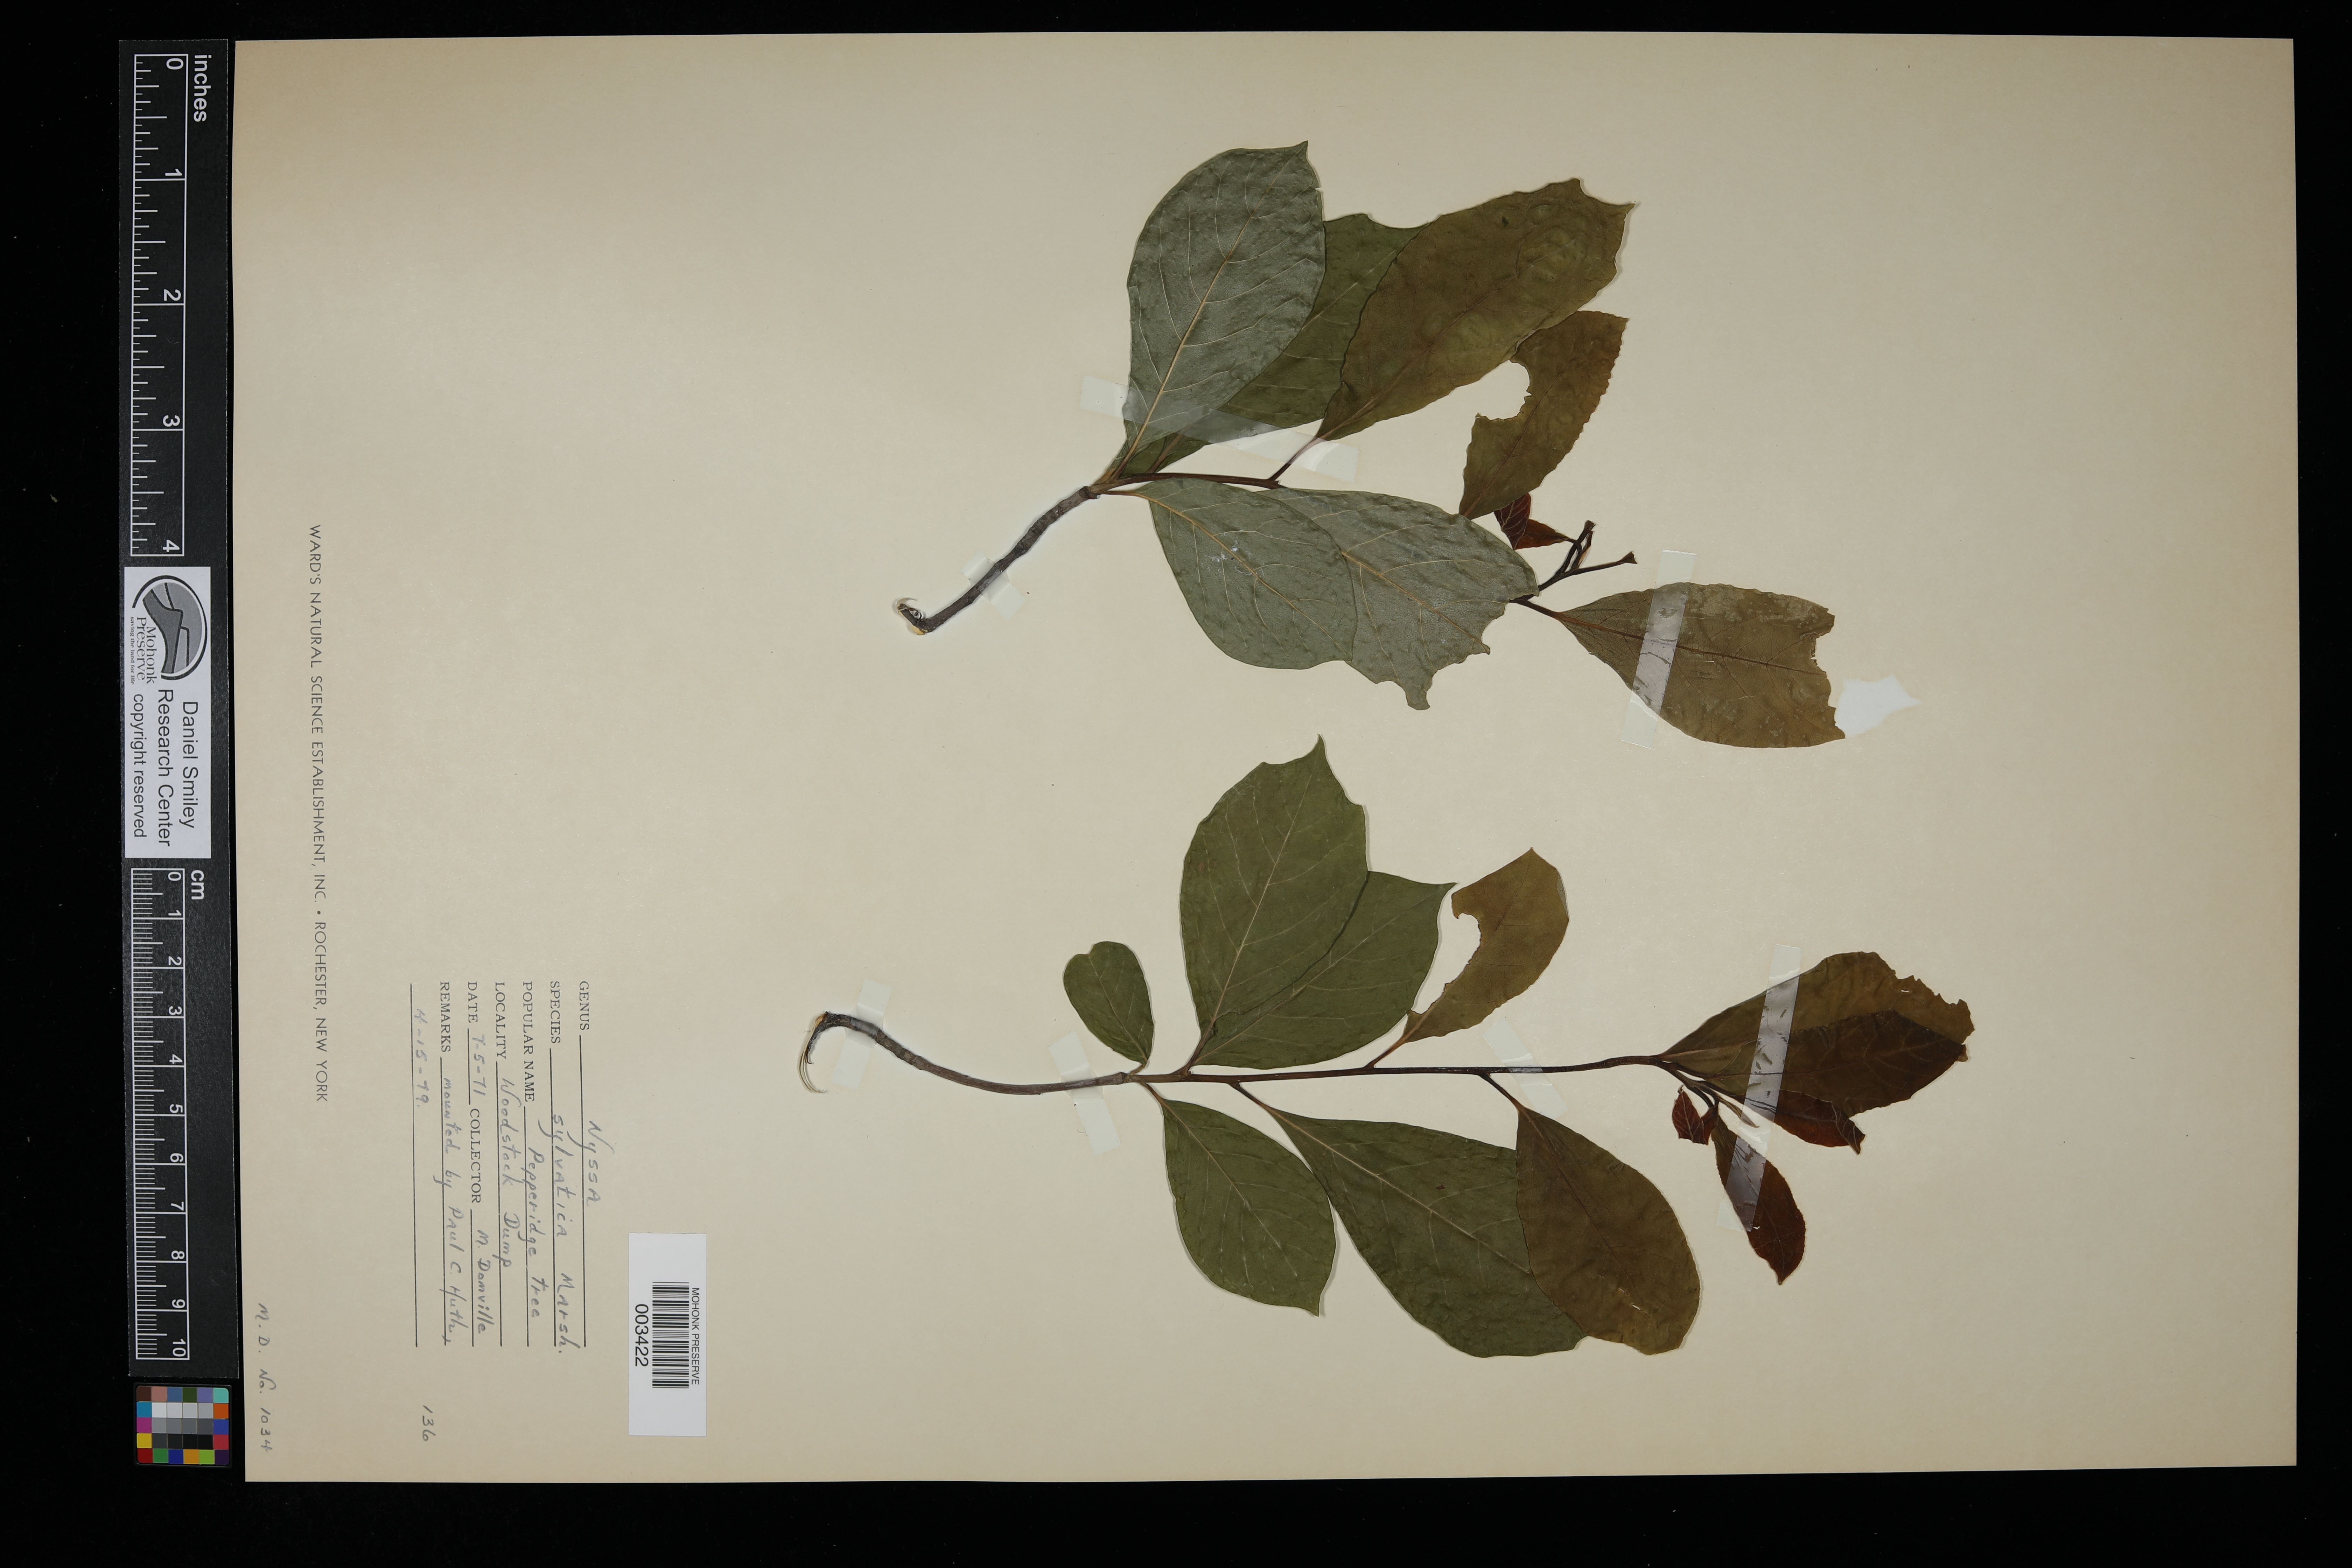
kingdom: Plantae
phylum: Tracheophyta
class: Magnoliopsida
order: Cornales
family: Nyssaceae
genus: Nyssa
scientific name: Nyssa sylvatica
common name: Black tupelo
